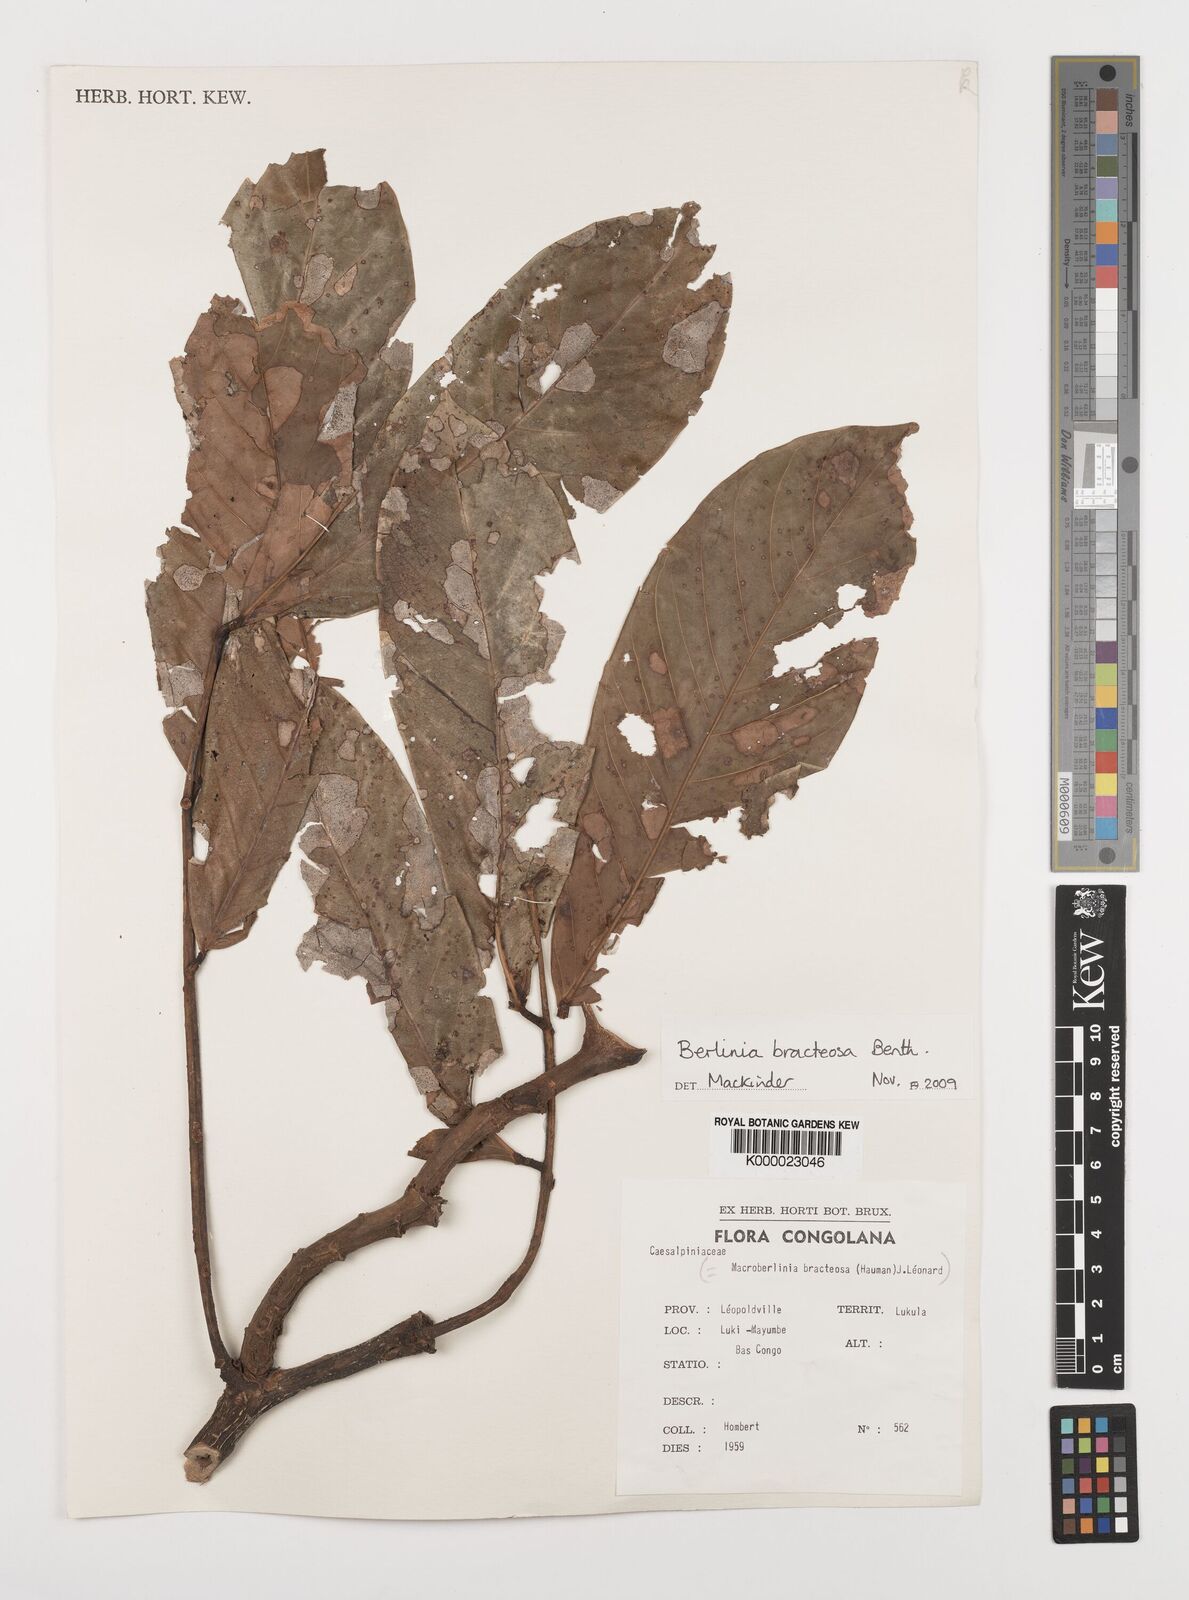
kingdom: Plantae
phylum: Tracheophyta
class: Magnoliopsida
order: Fabales
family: Fabaceae
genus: Berlinia
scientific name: Berlinia bracteosa
